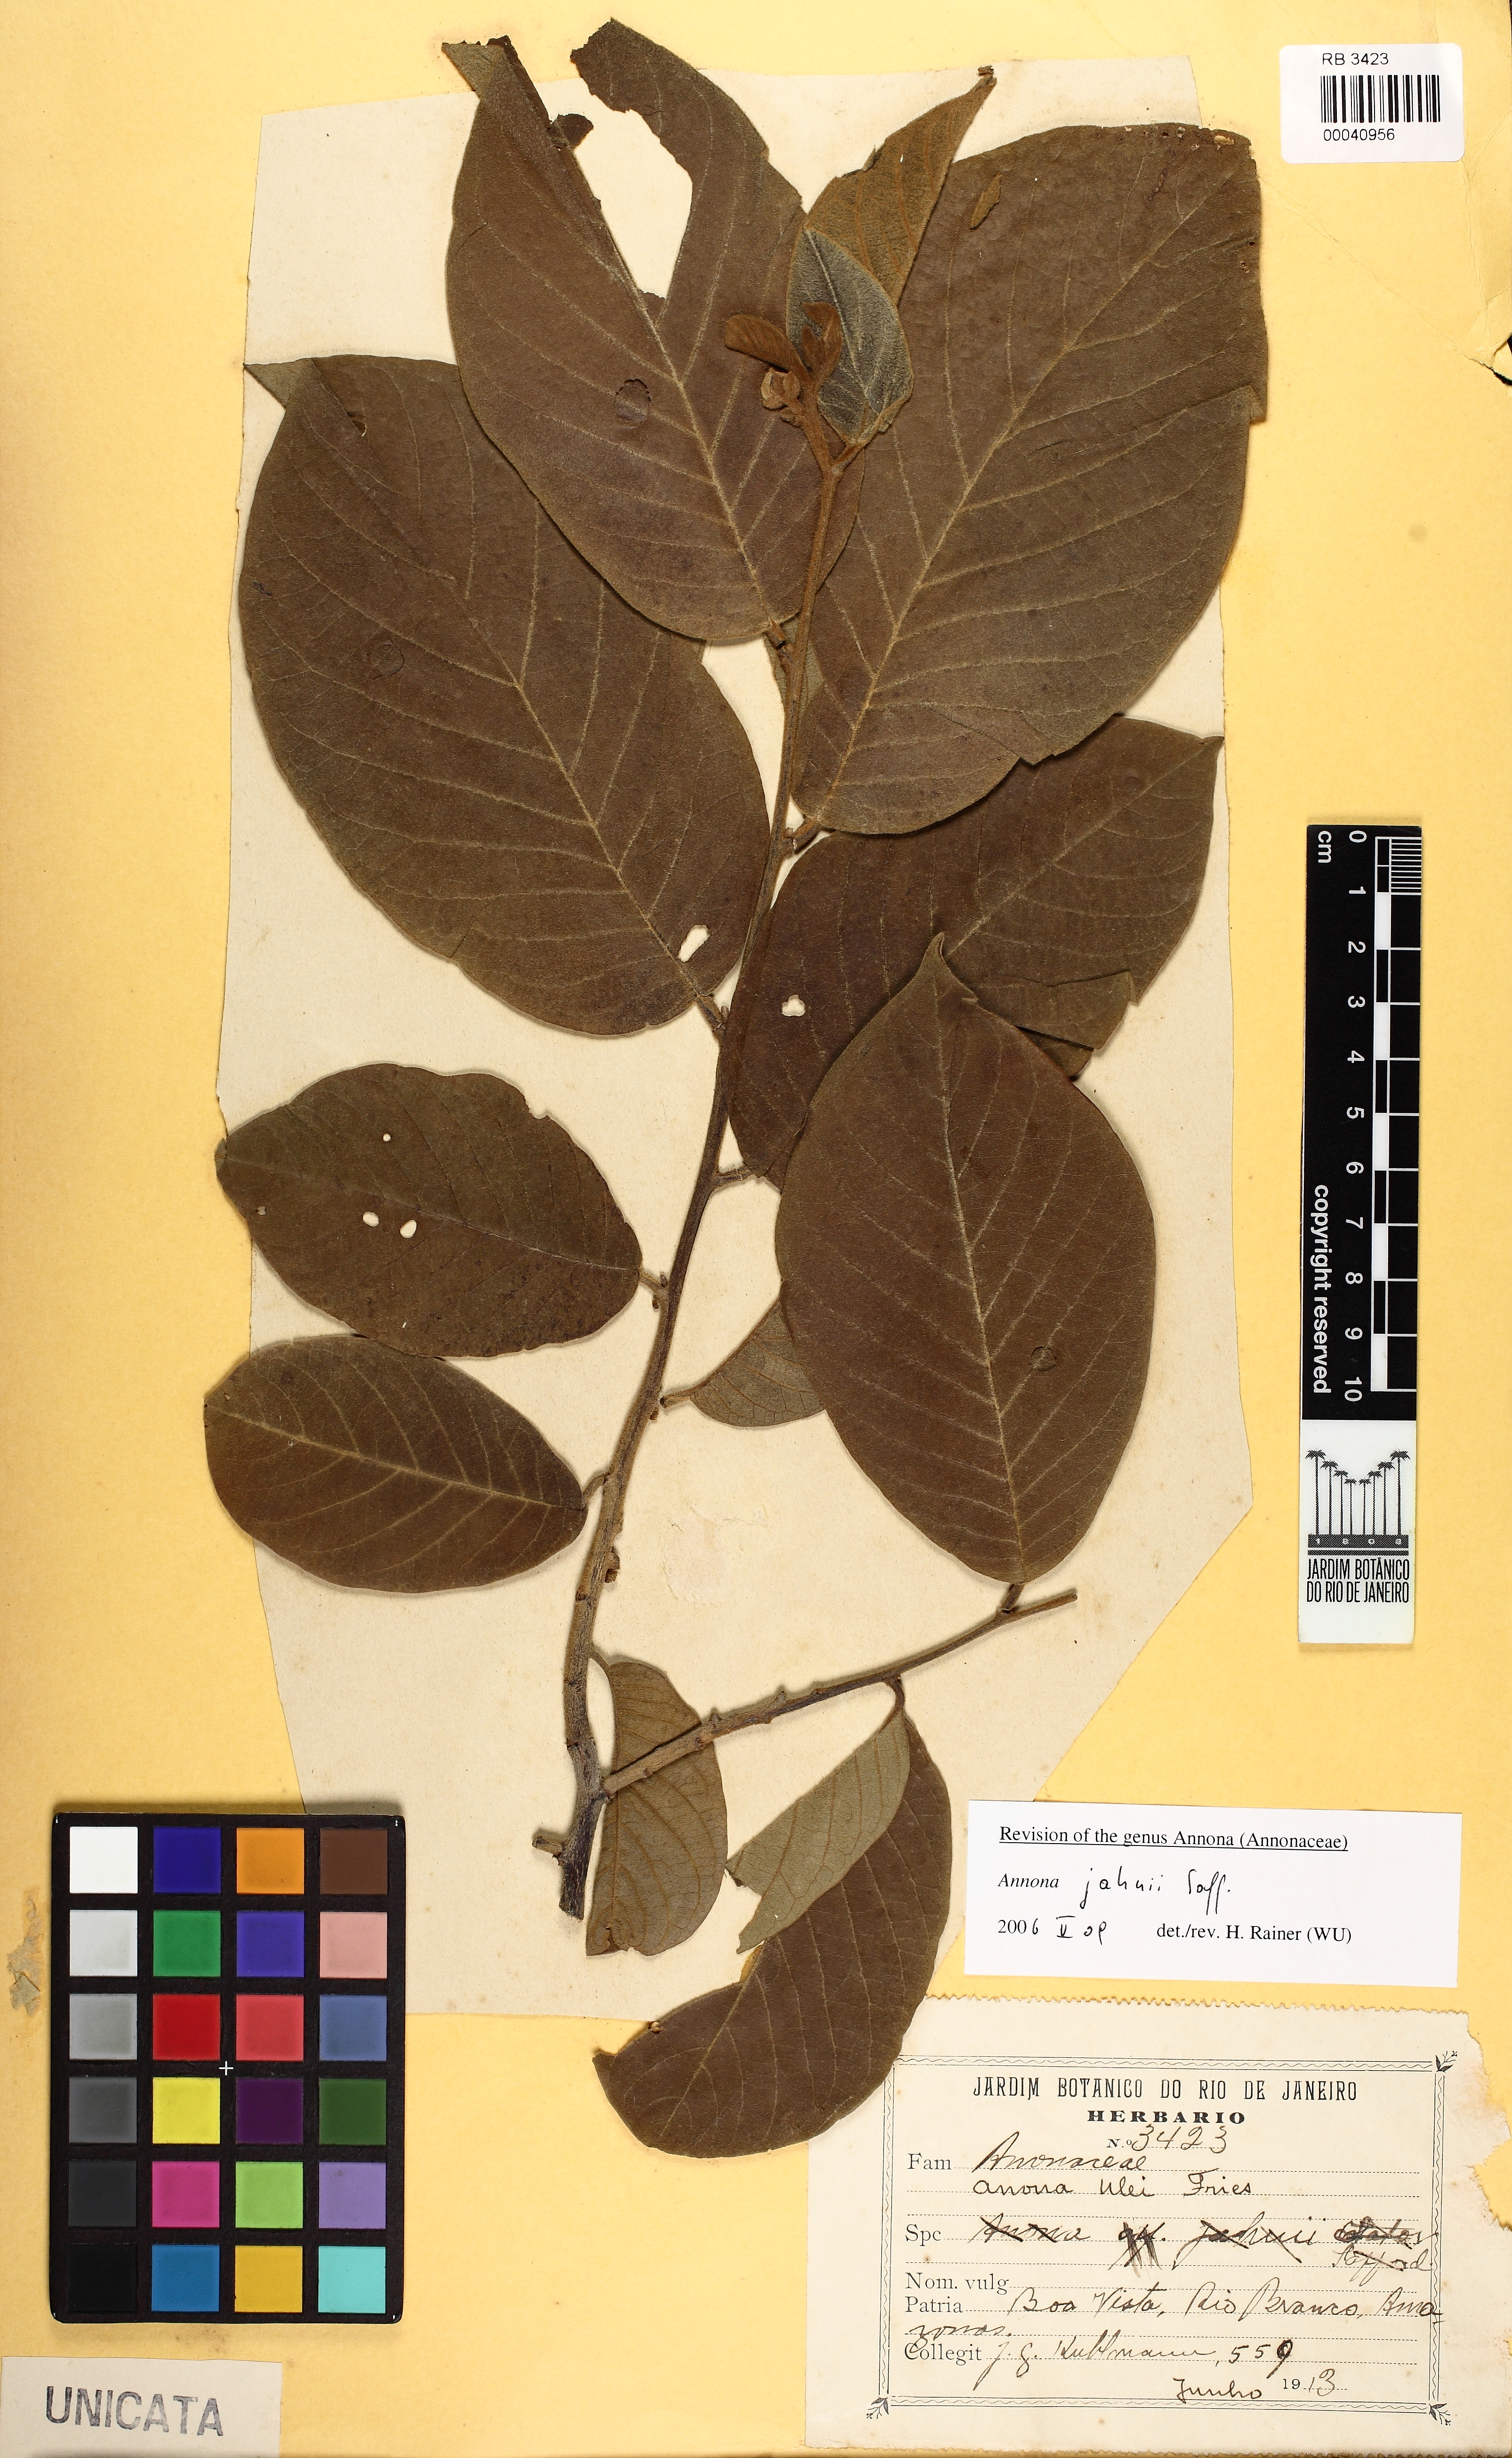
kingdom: Plantae
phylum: Tracheophyta
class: Magnoliopsida
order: Magnoliales
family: Annonaceae
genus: Annona
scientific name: Annona jahnii
